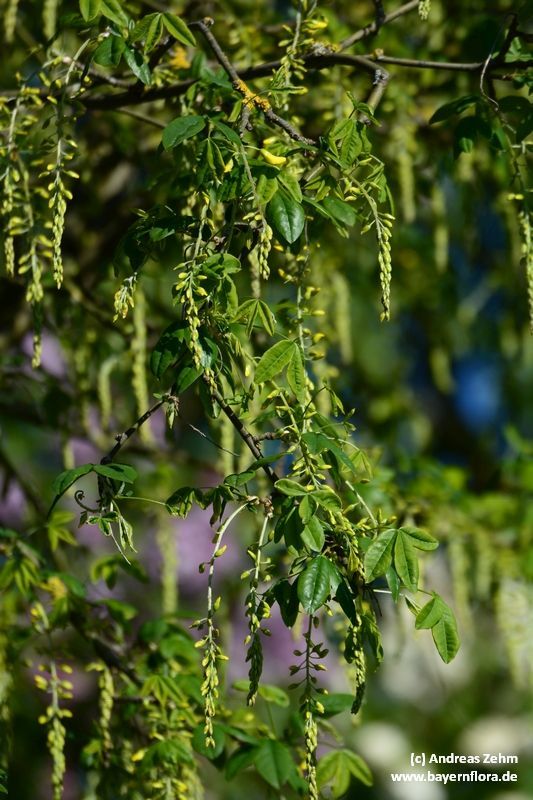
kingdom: Plantae
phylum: Tracheophyta
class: Magnoliopsida
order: Fabales
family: Fabaceae
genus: Laburnum
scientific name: Laburnum anagyroides
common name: Laburnum
